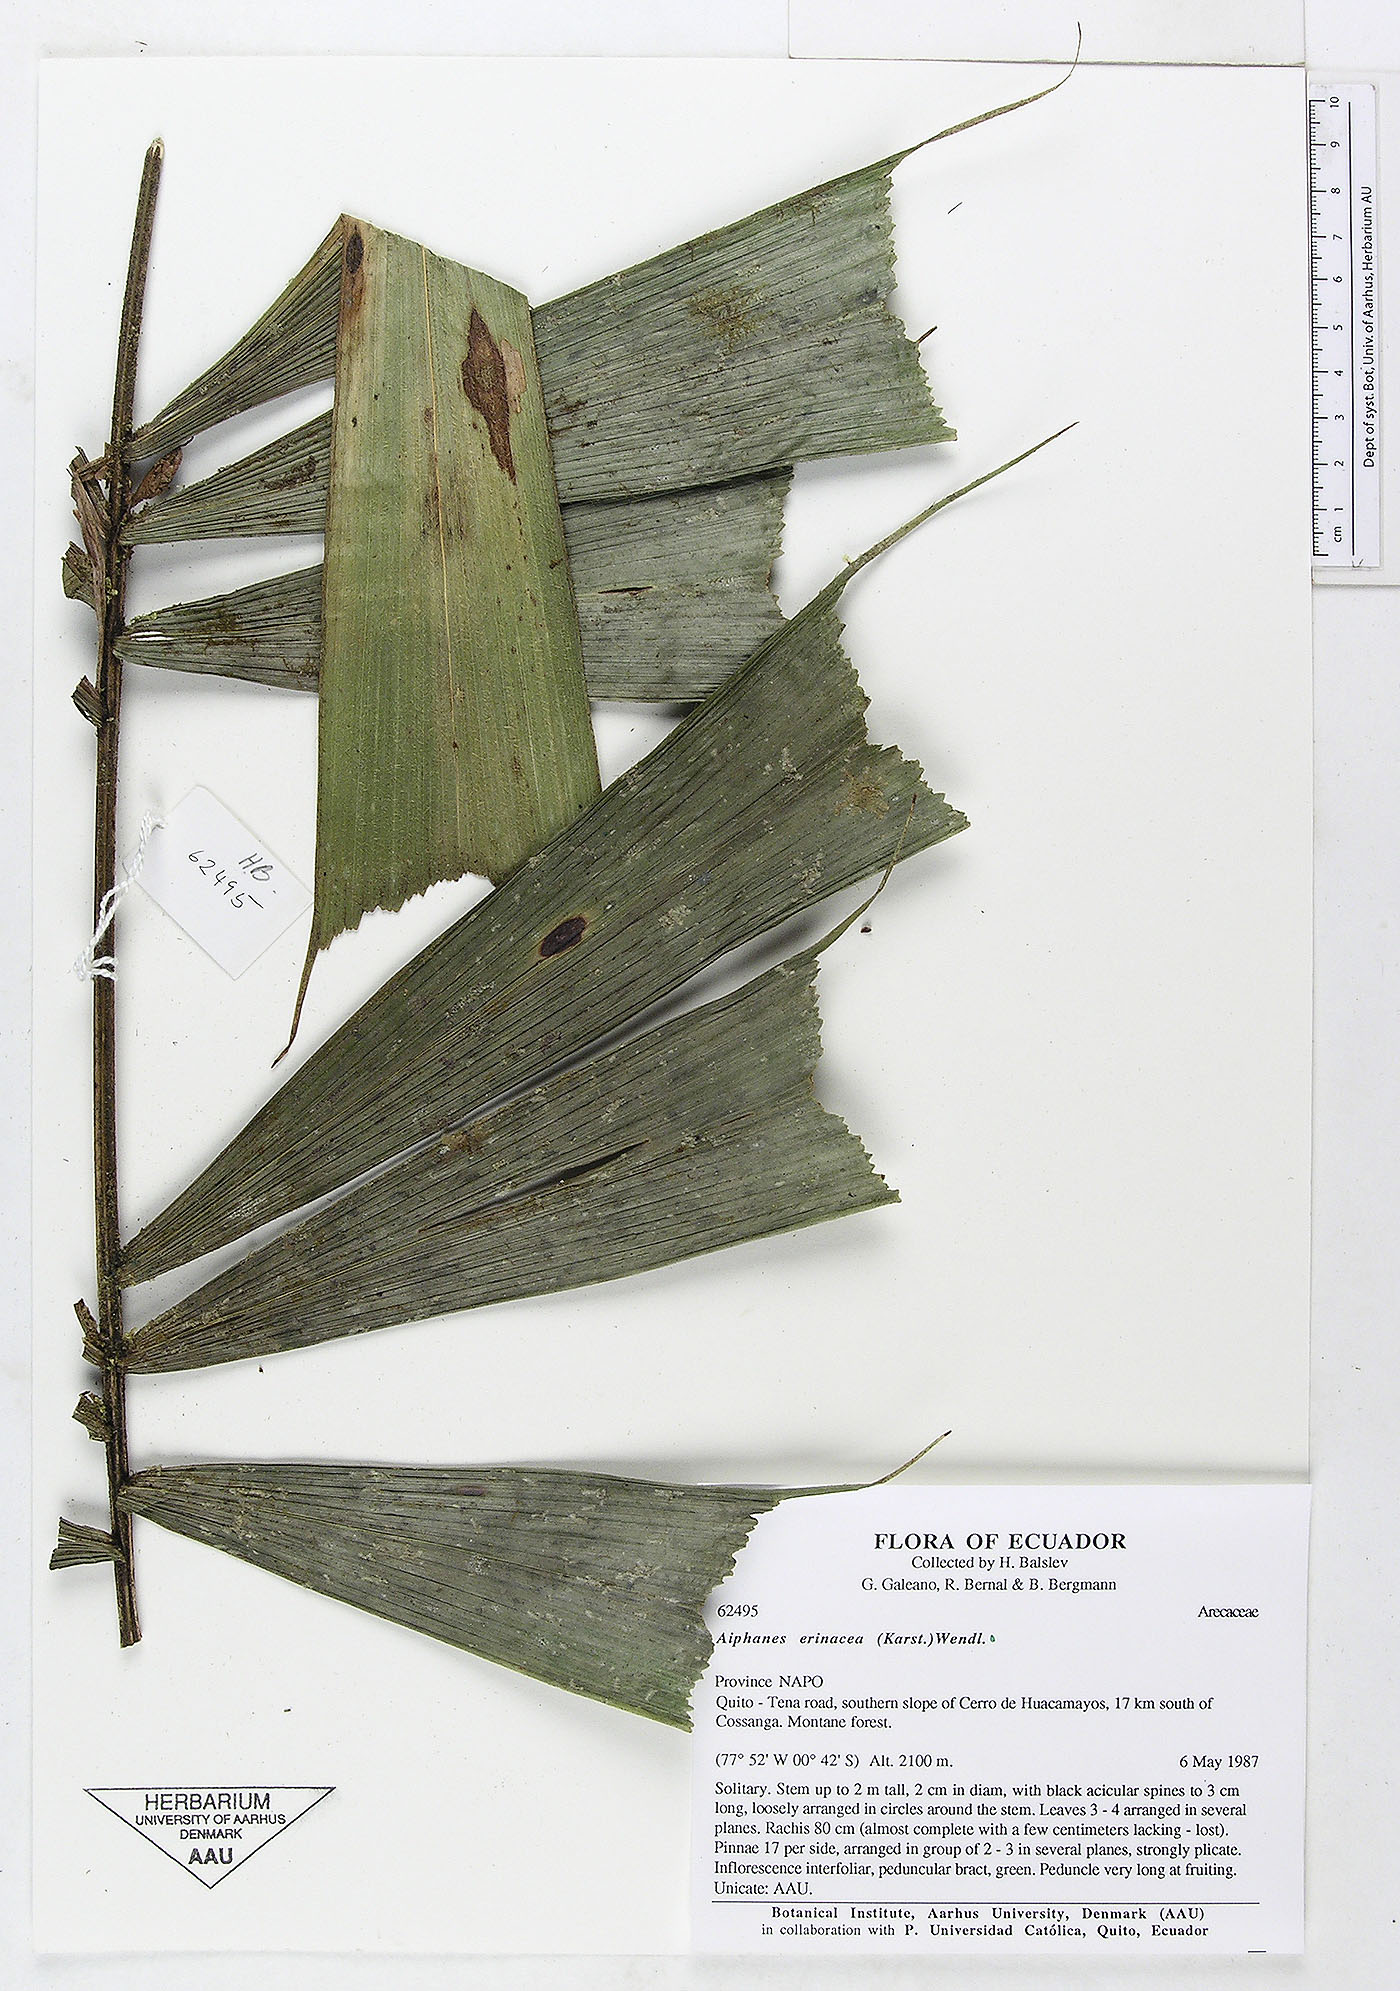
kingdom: Plantae
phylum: Tracheophyta
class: Liliopsida
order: Arecales
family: Arecaceae
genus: Aiphanes
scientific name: Aiphanes erinacea
